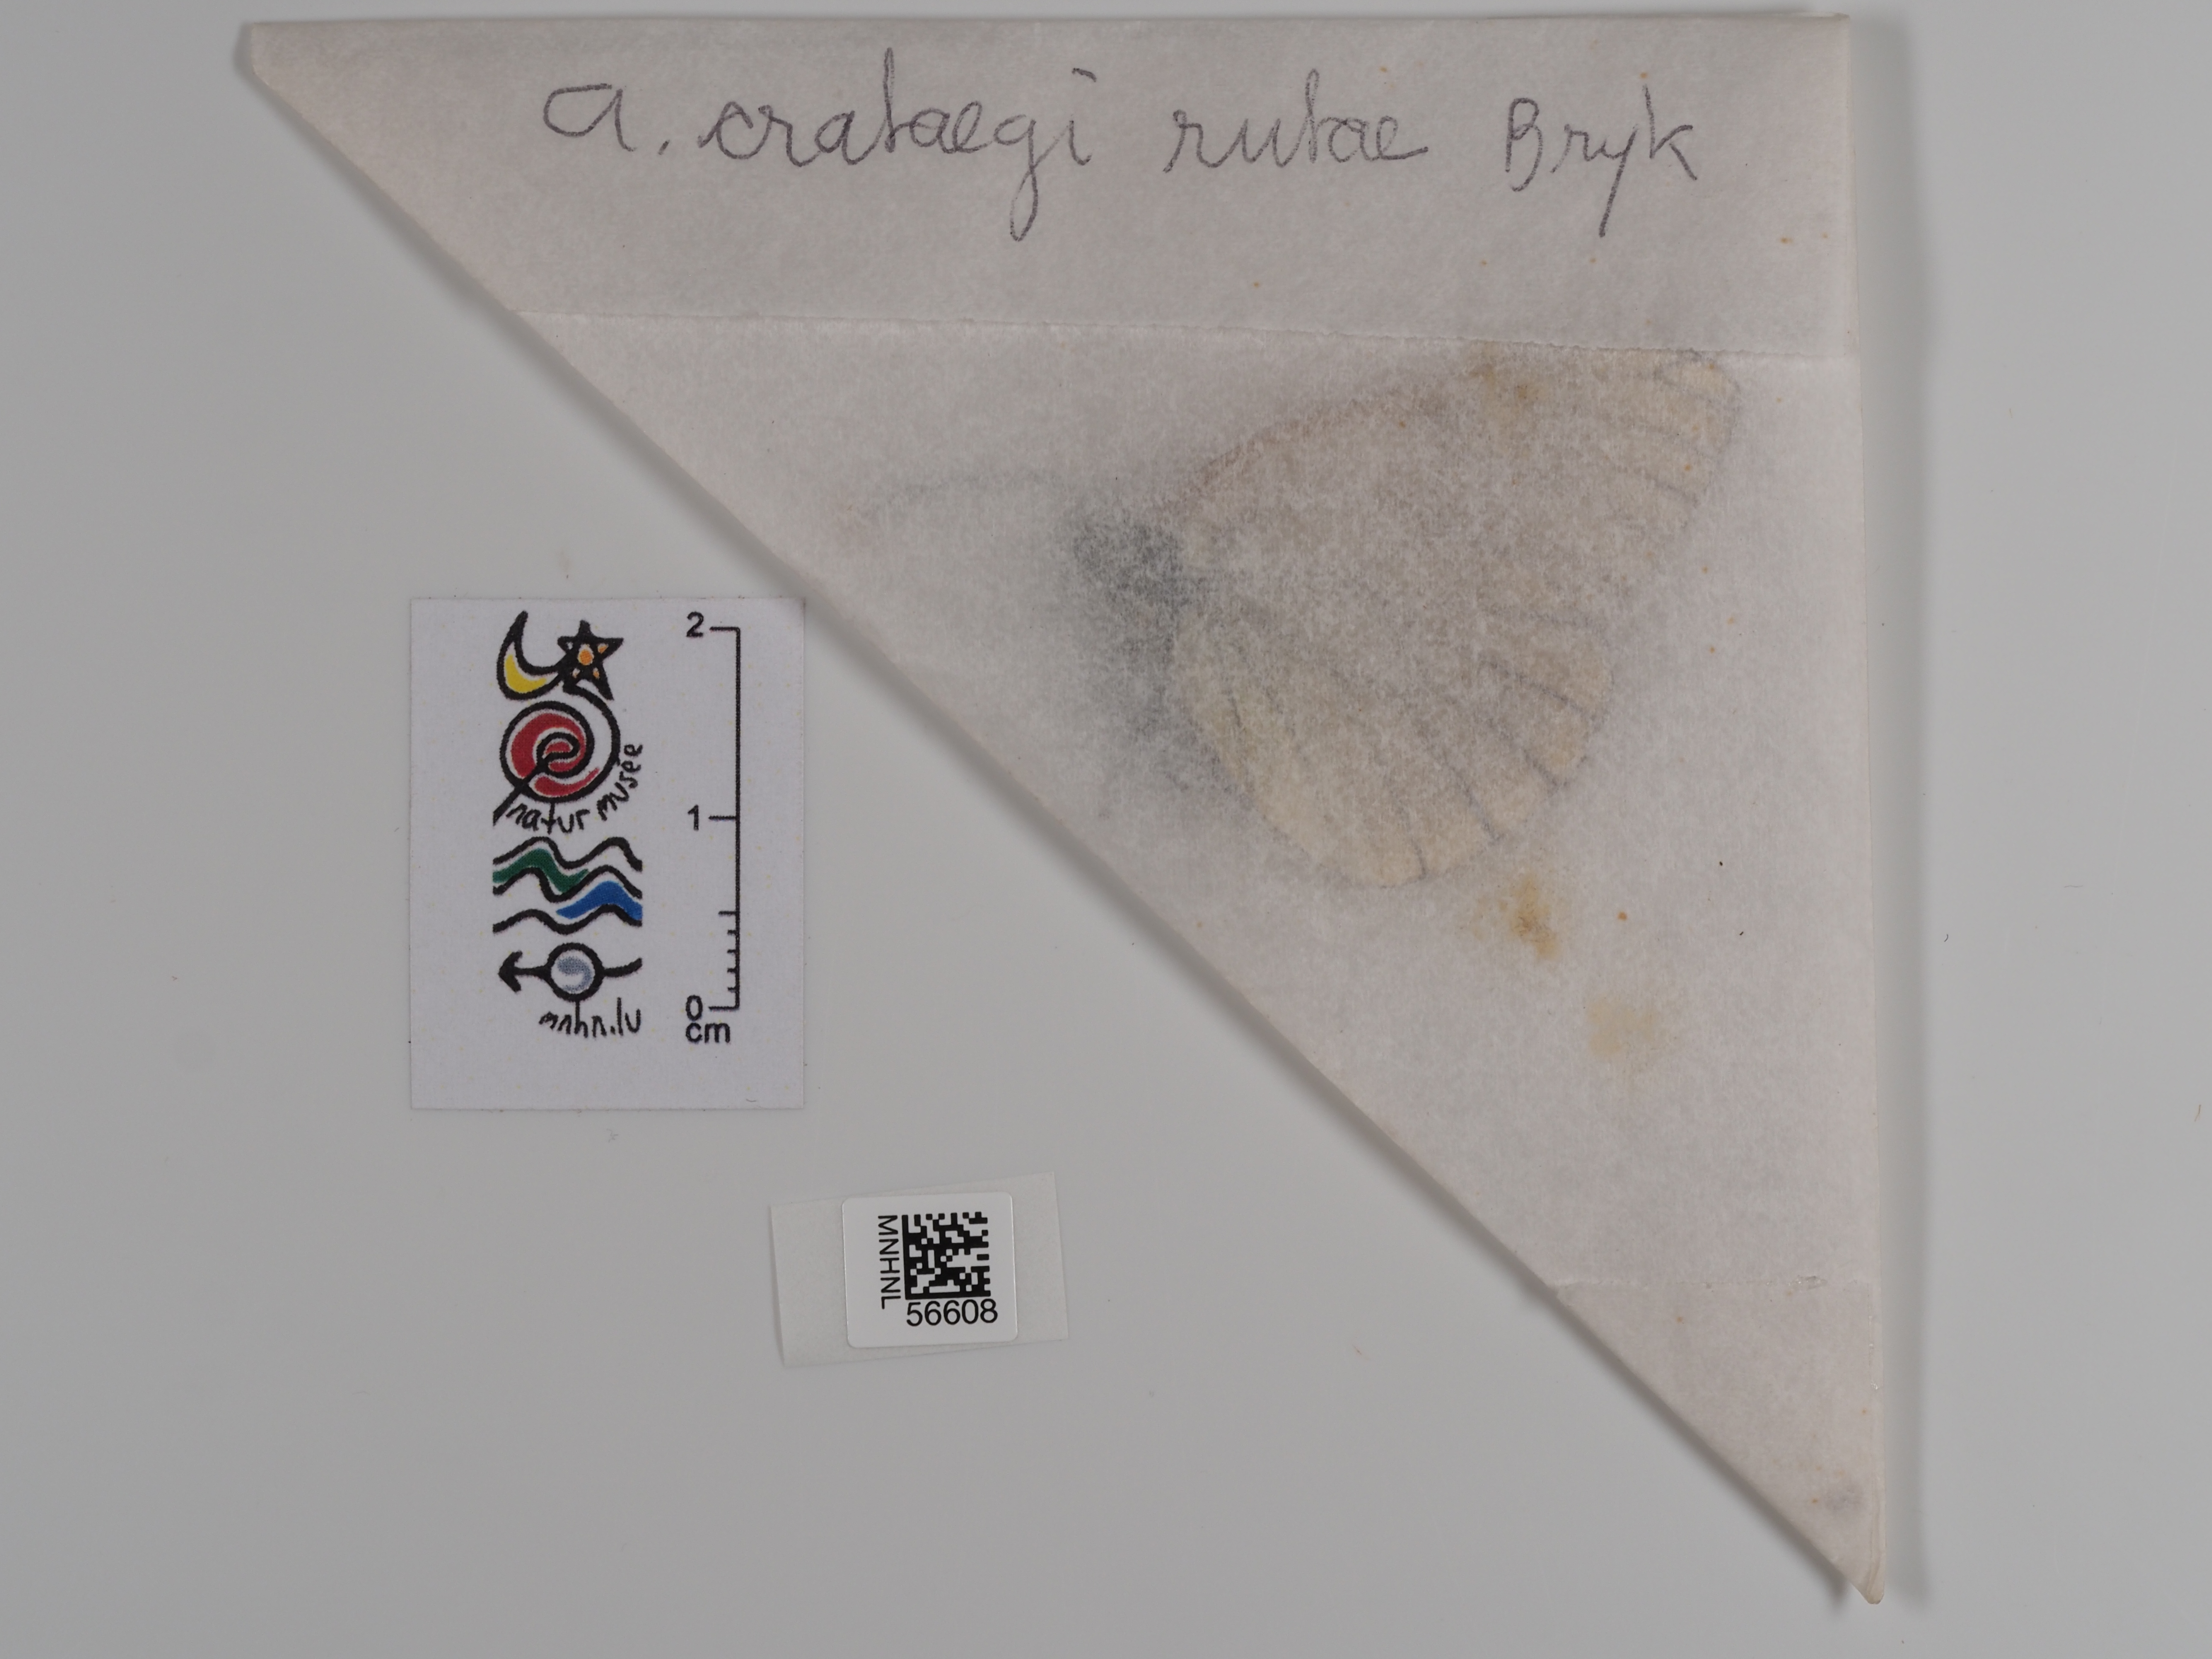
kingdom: Animalia
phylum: Arthropoda
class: Insecta
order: Lepidoptera
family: Pieridae
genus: Aporia
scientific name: Aporia crataegi
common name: Black-veined white
